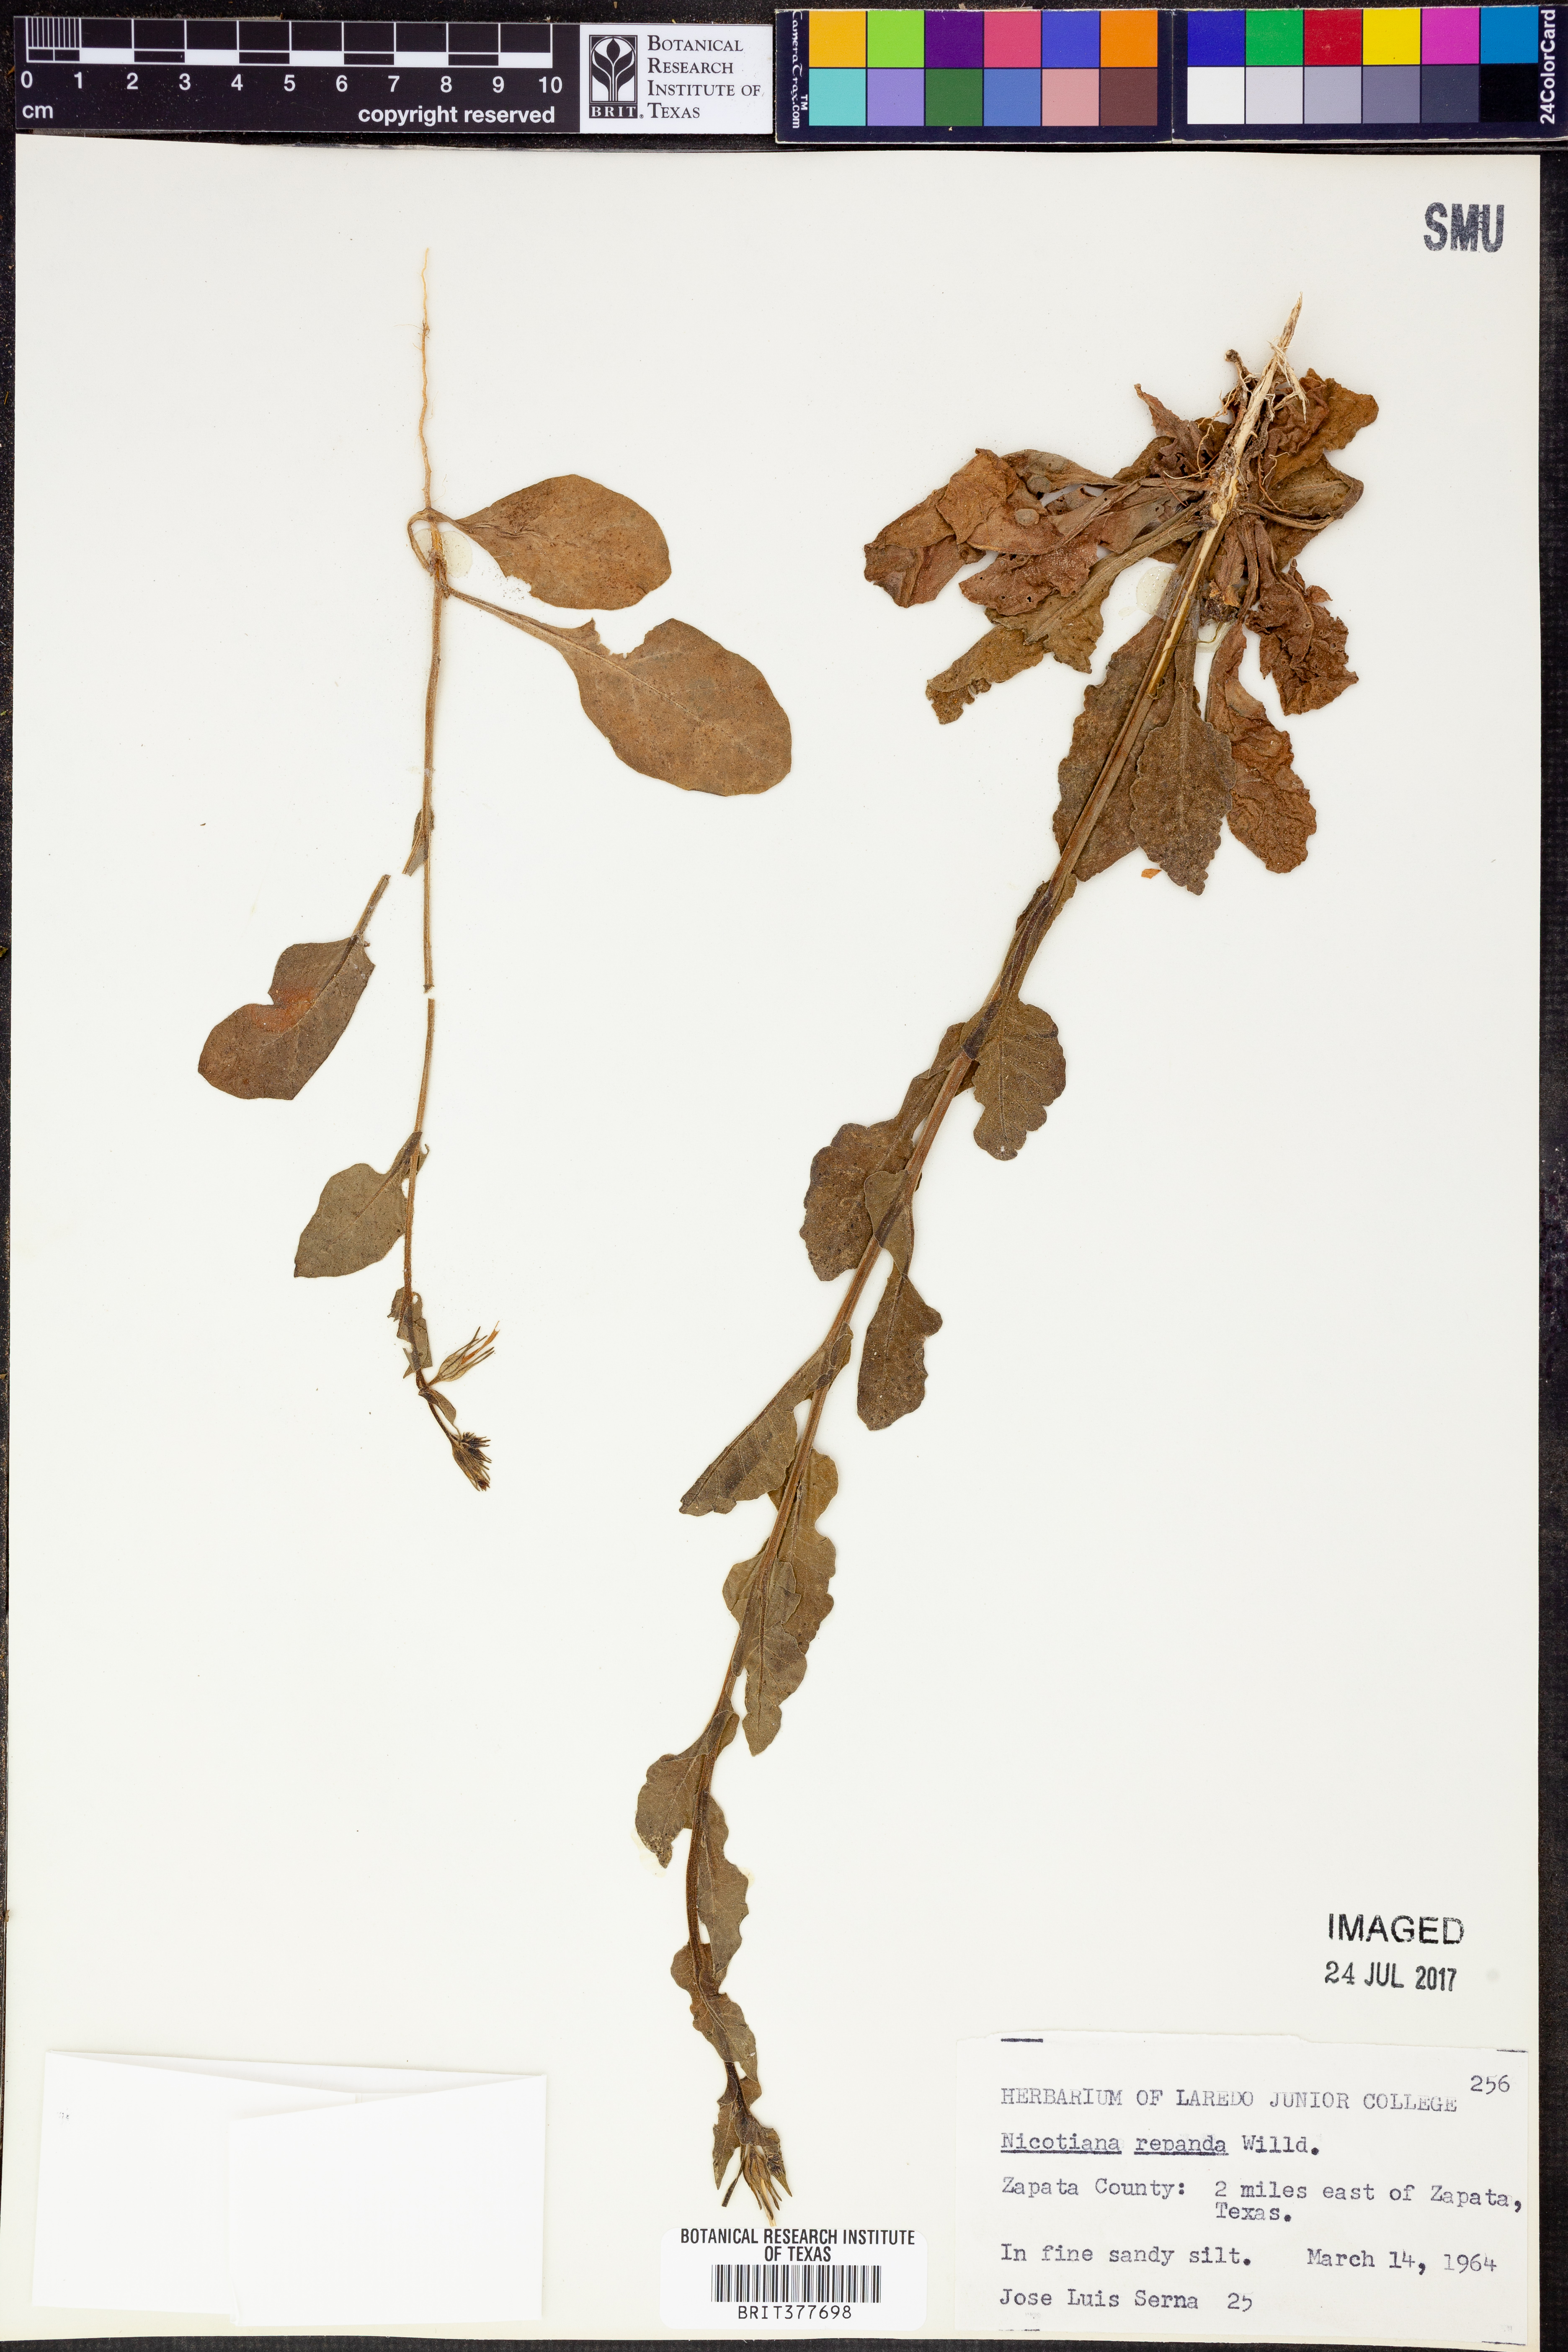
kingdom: Plantae
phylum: Tracheophyta
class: Magnoliopsida
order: Solanales
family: Solanaceae
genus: Nicotiana
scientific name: Nicotiana repanda
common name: Fiddle-leaf tobacco
